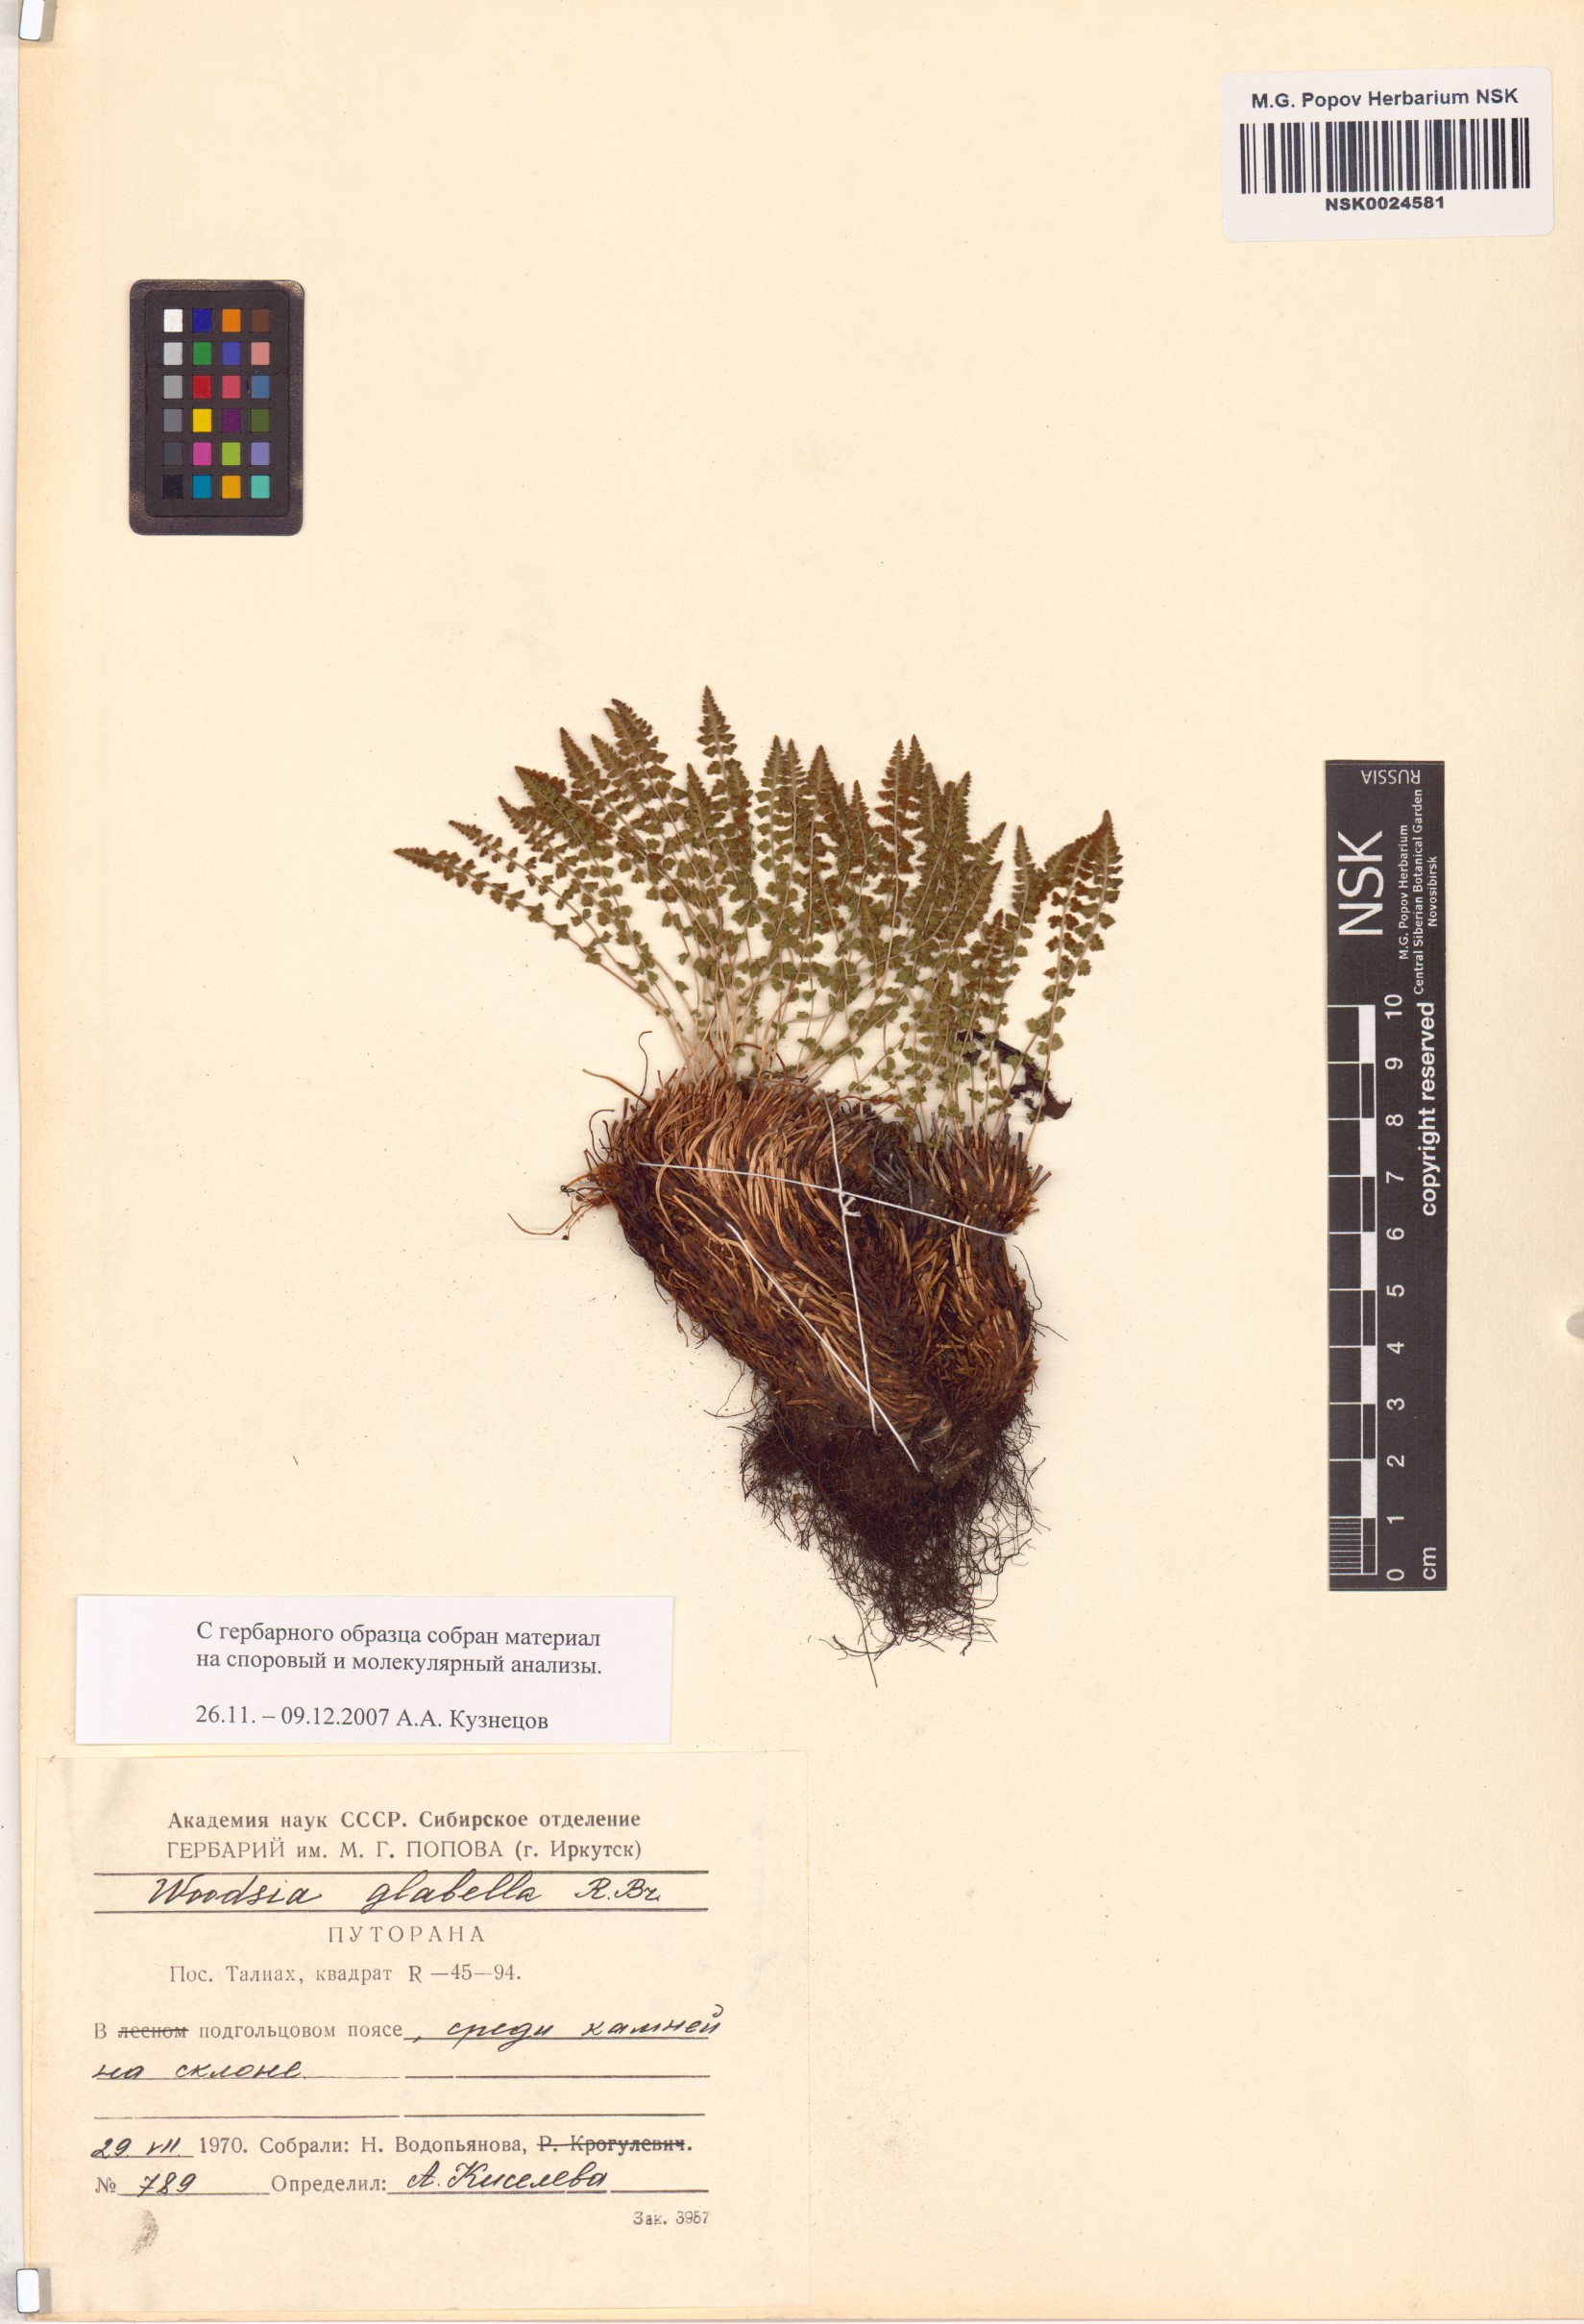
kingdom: Plantae
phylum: Tracheophyta
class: Polypodiopsida
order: Polypodiales
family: Woodsiaceae
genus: Woodsia
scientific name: Woodsia glabella
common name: Smooth woodsia
